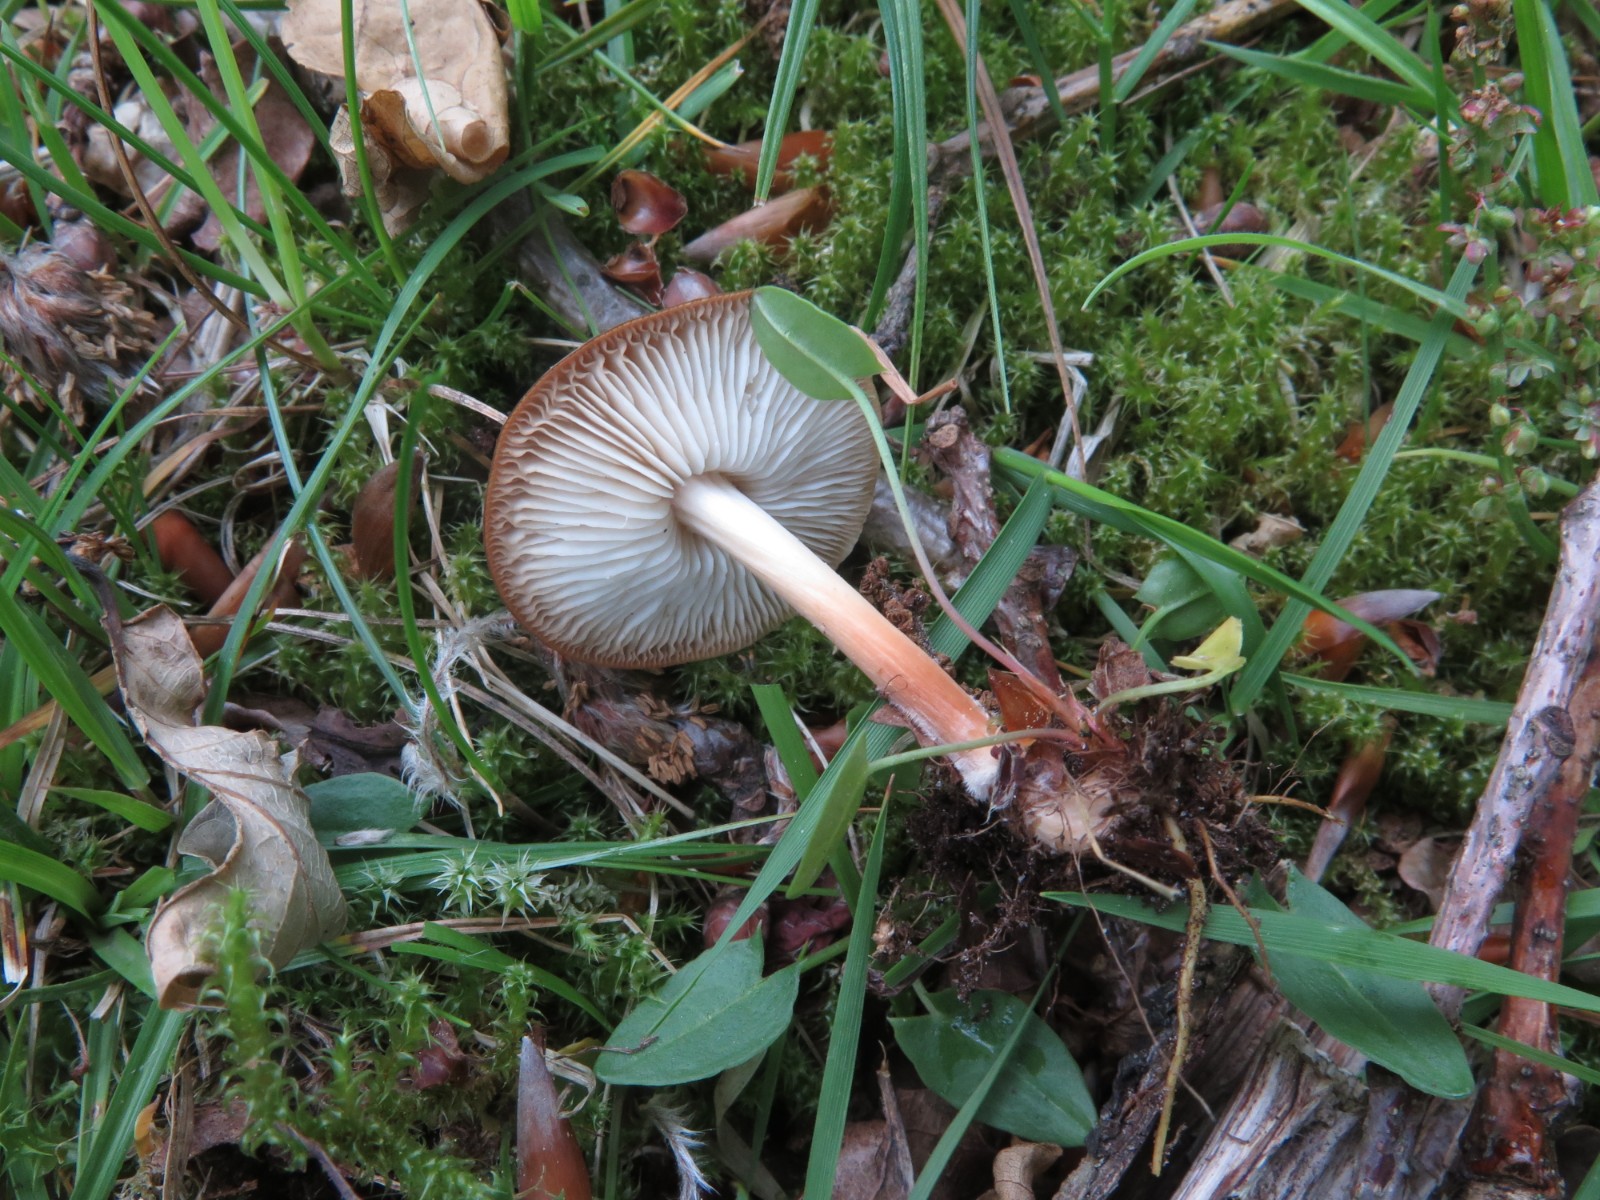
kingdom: Fungi
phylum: Basidiomycota
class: Agaricomycetes
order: Agaricales
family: Omphalotaceae
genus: Gymnopus
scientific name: Gymnopus dryophilus
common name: løv-fladhat
